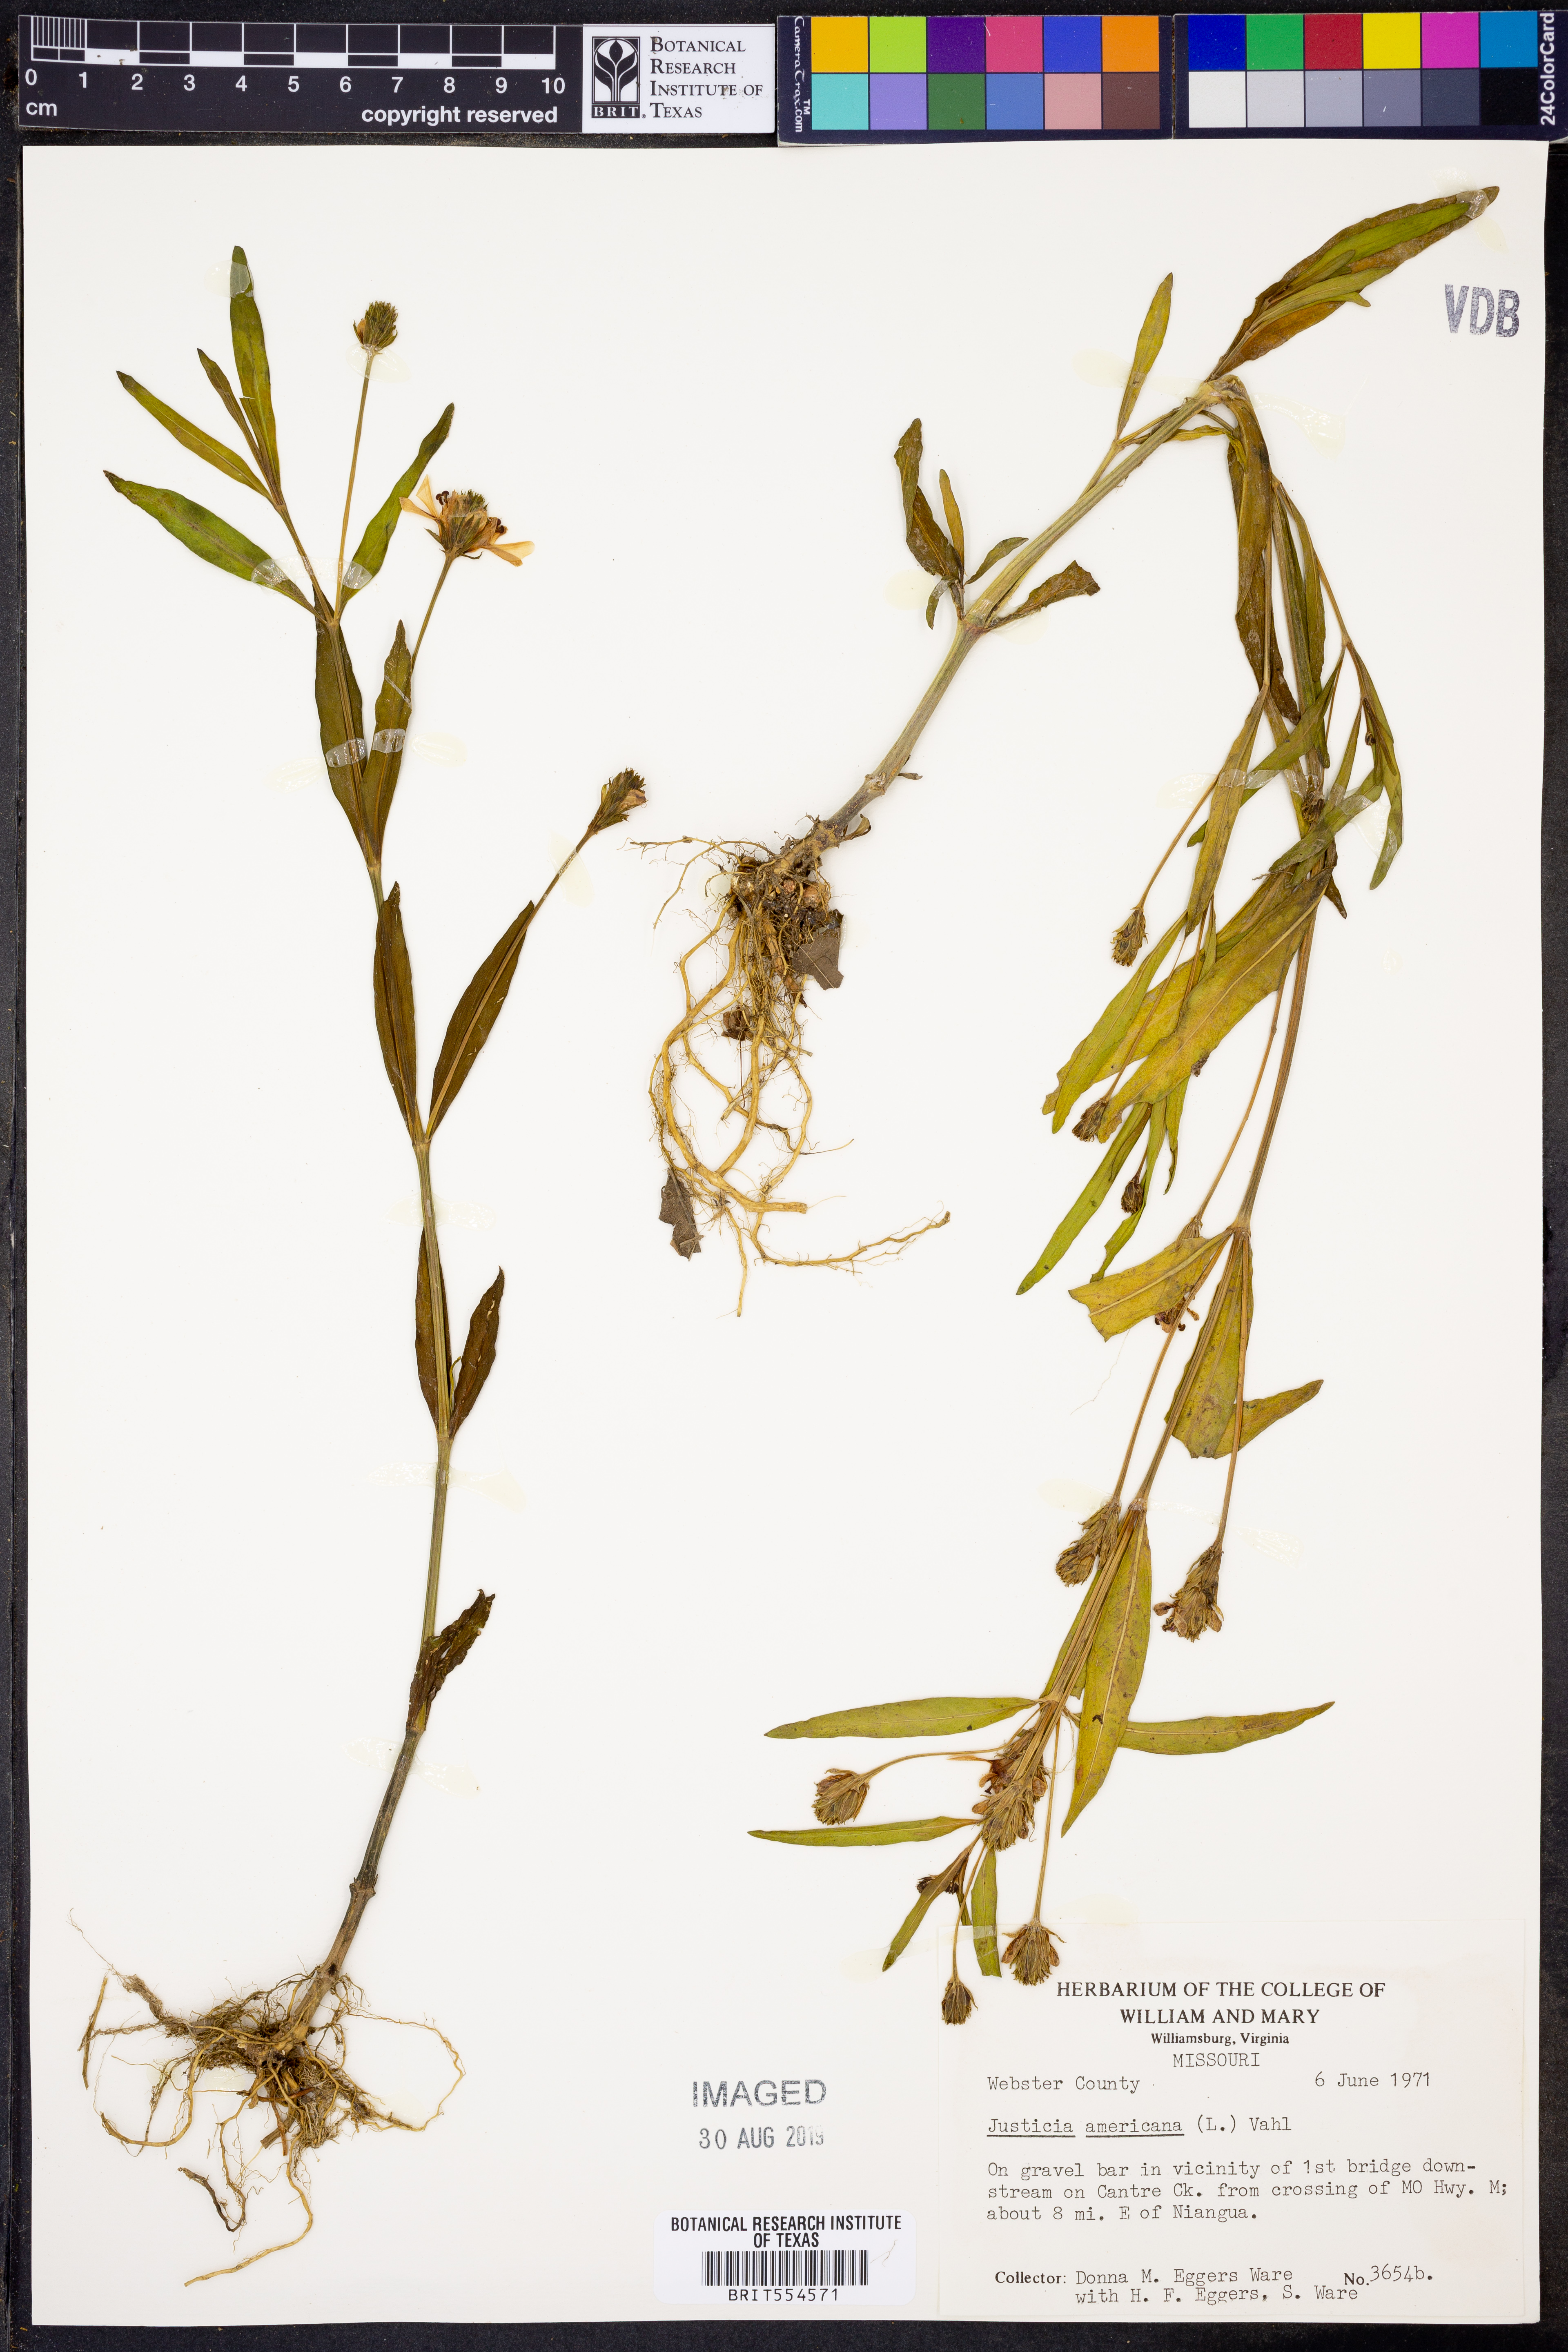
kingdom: Plantae
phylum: Tracheophyta
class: Magnoliopsida
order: Lamiales
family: Acanthaceae
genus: Dianthera
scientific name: Dianthera americana
